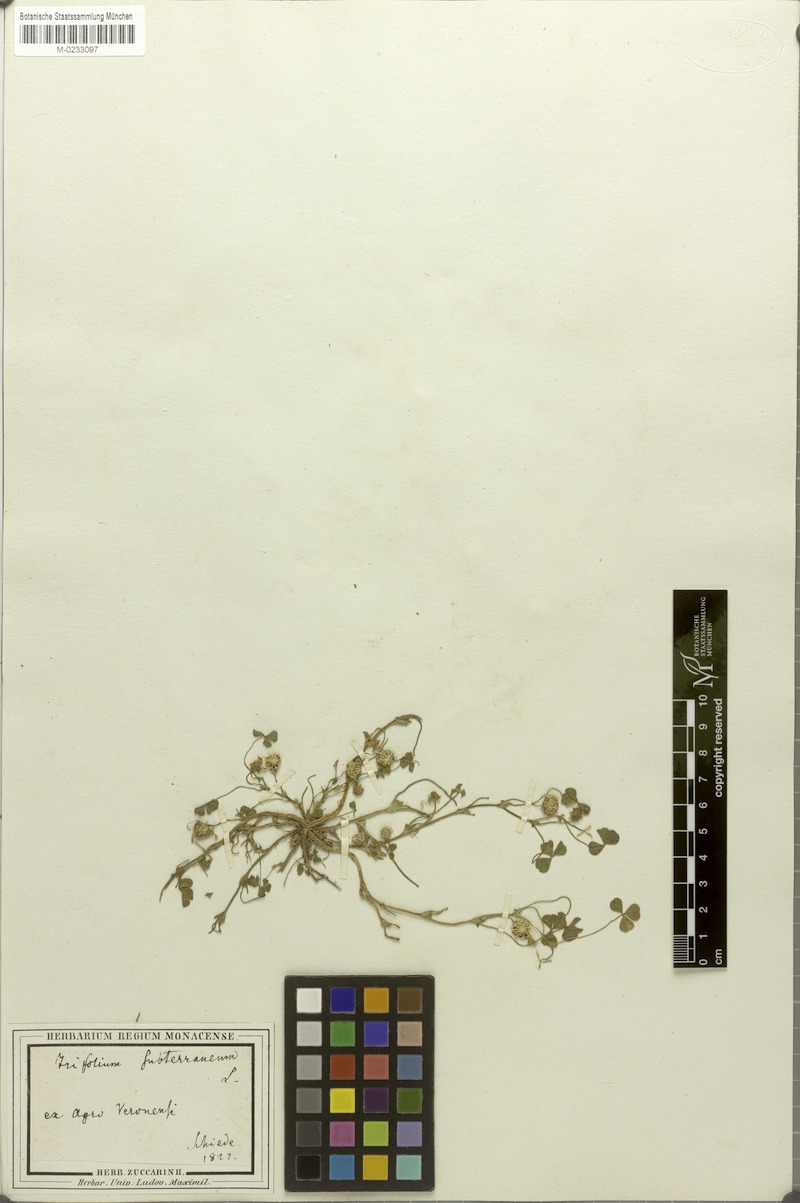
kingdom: Plantae
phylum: Tracheophyta
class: Magnoliopsida
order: Fabales
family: Fabaceae
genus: Trifolium
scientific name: Trifolium subterraneum
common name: Subterranean clover
